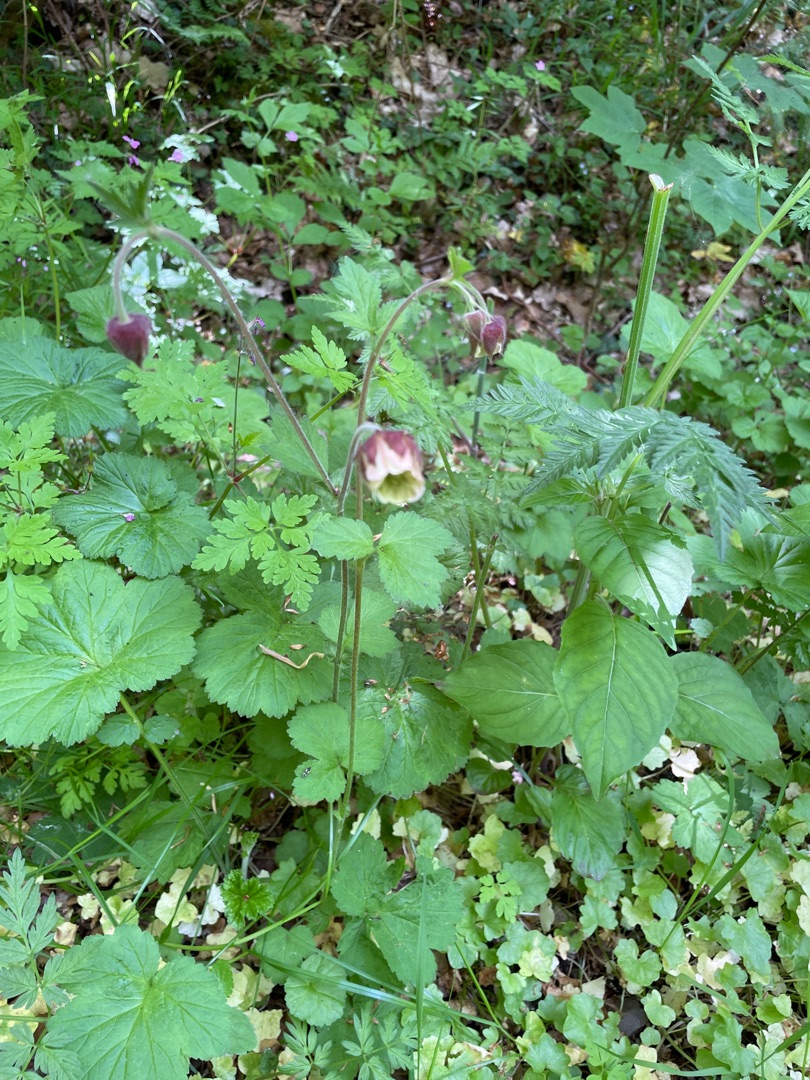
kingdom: Plantae
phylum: Tracheophyta
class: Magnoliopsida
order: Rosales
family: Rosaceae
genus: Geum
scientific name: Geum rivale
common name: Eng-nellikerod
